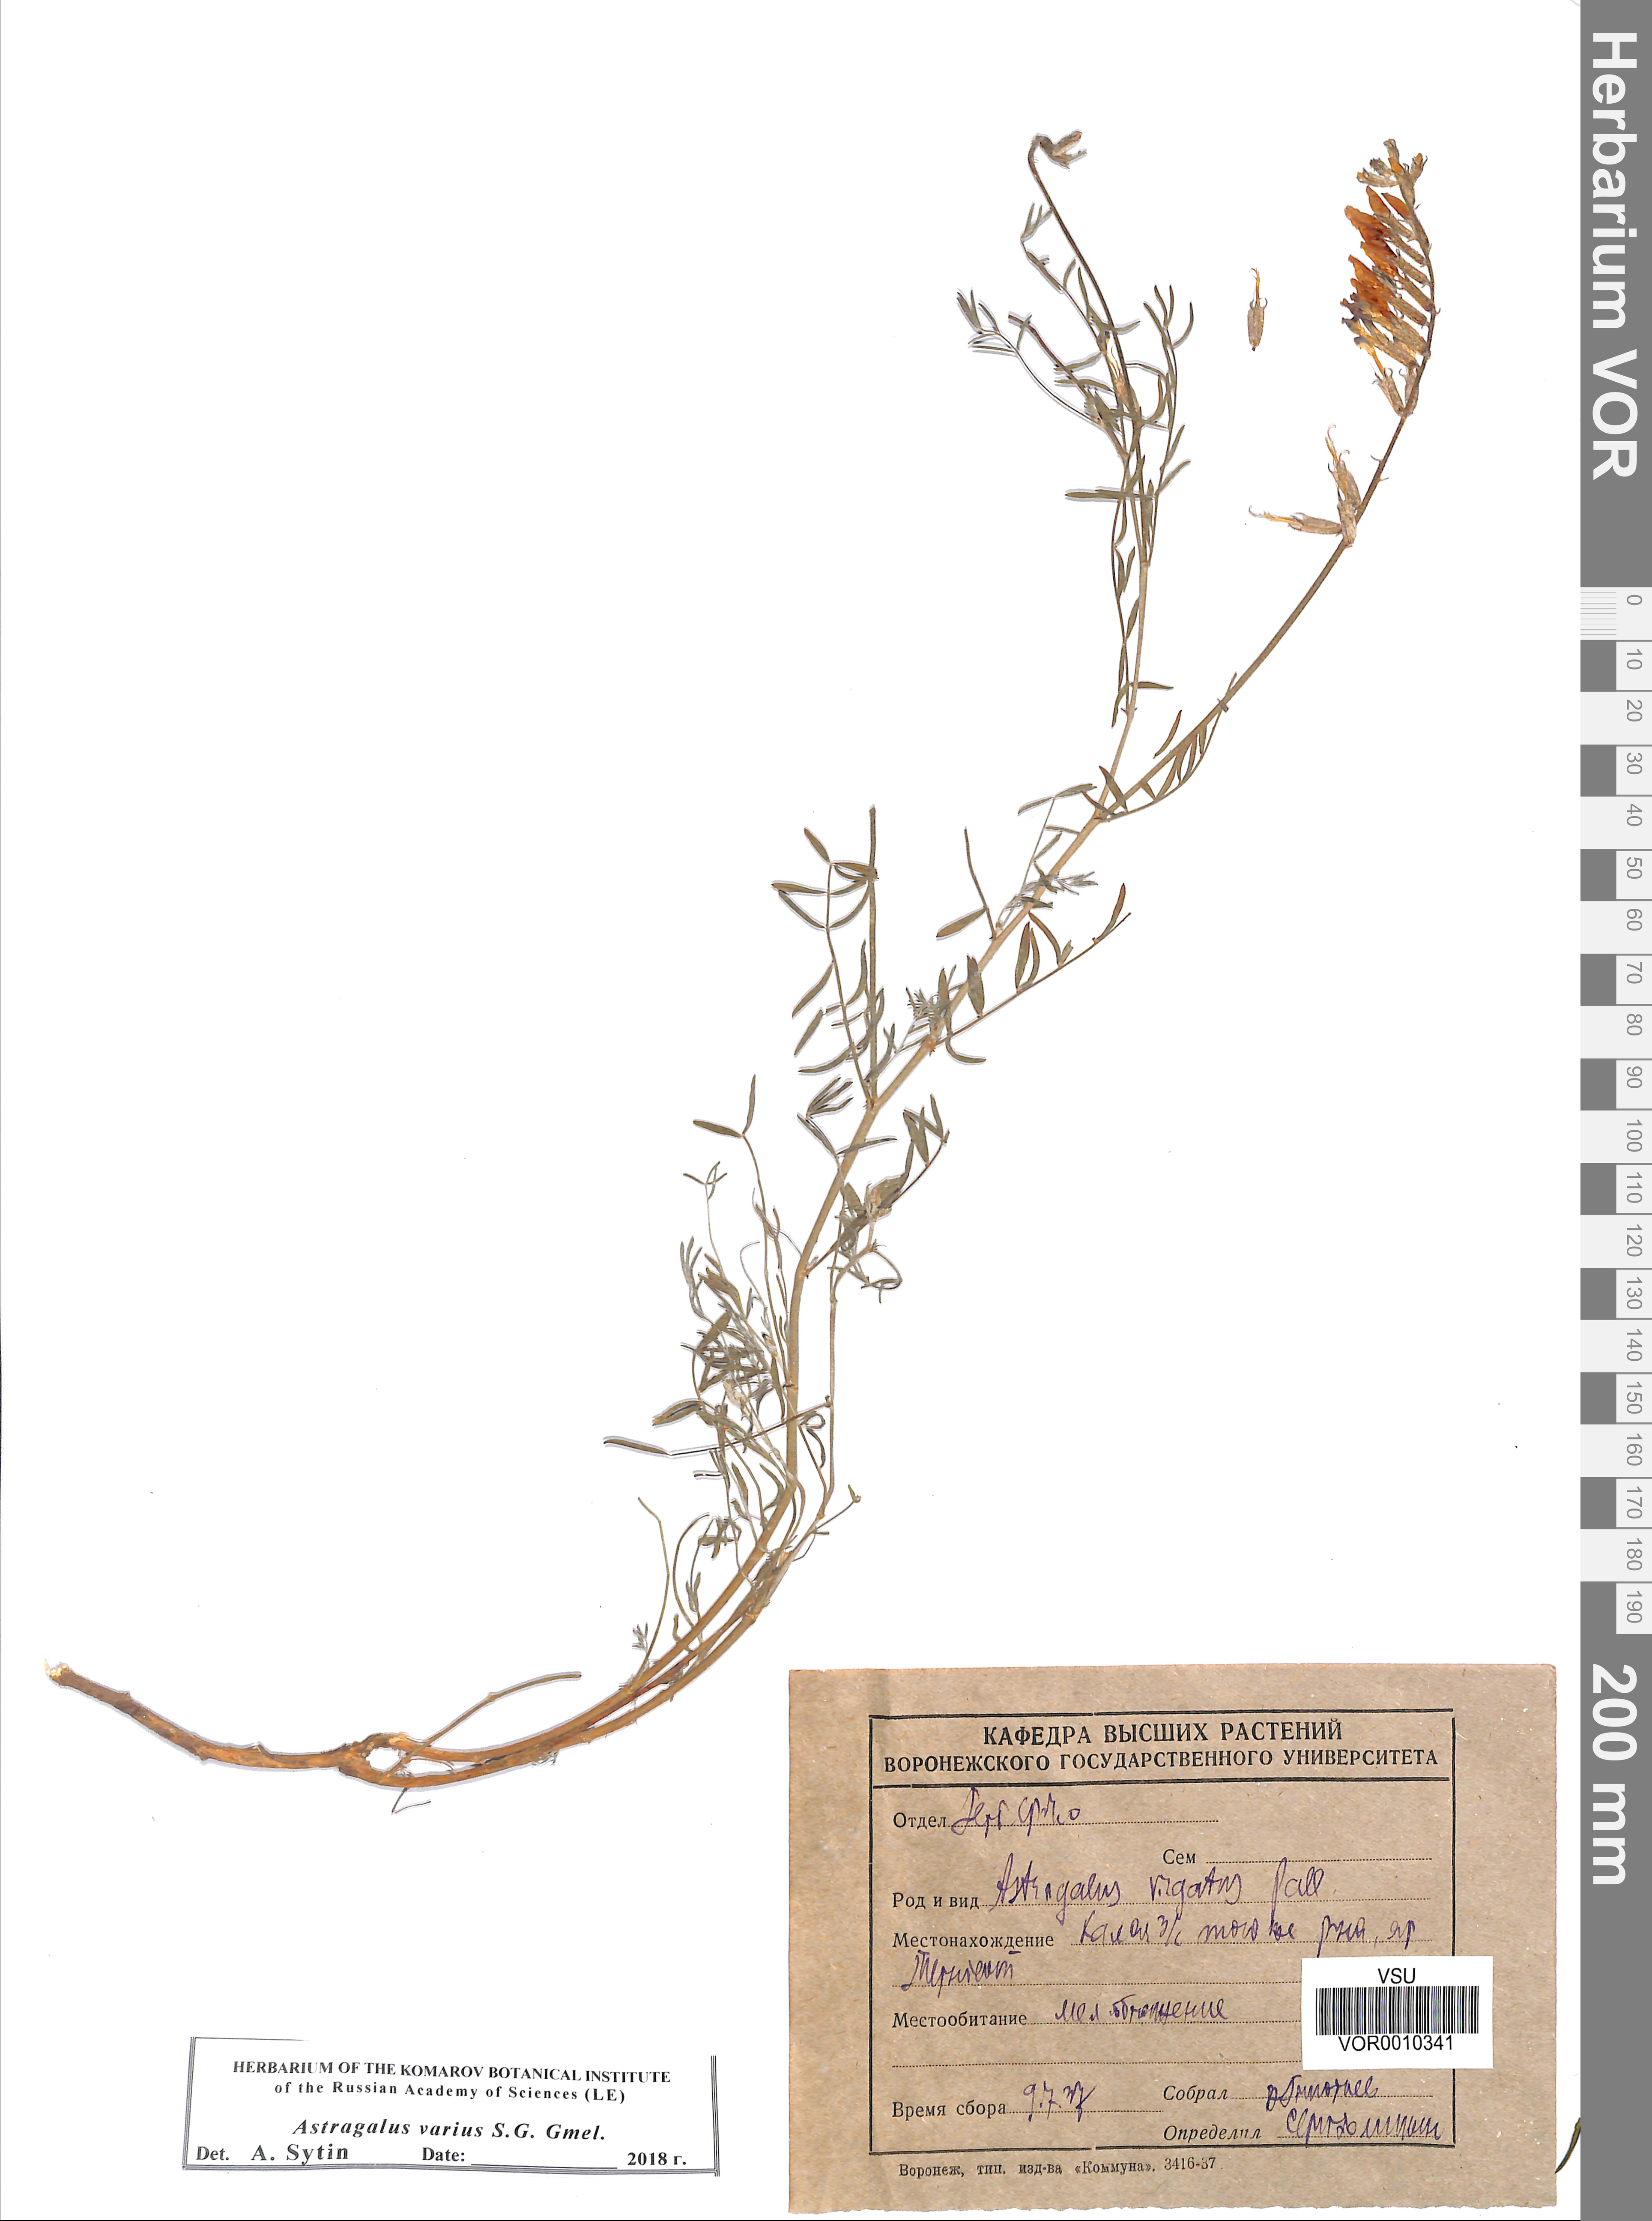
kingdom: Plantae
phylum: Tracheophyta
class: Magnoliopsida
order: Fabales
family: Fabaceae
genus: Astragalus
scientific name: Astragalus varius
